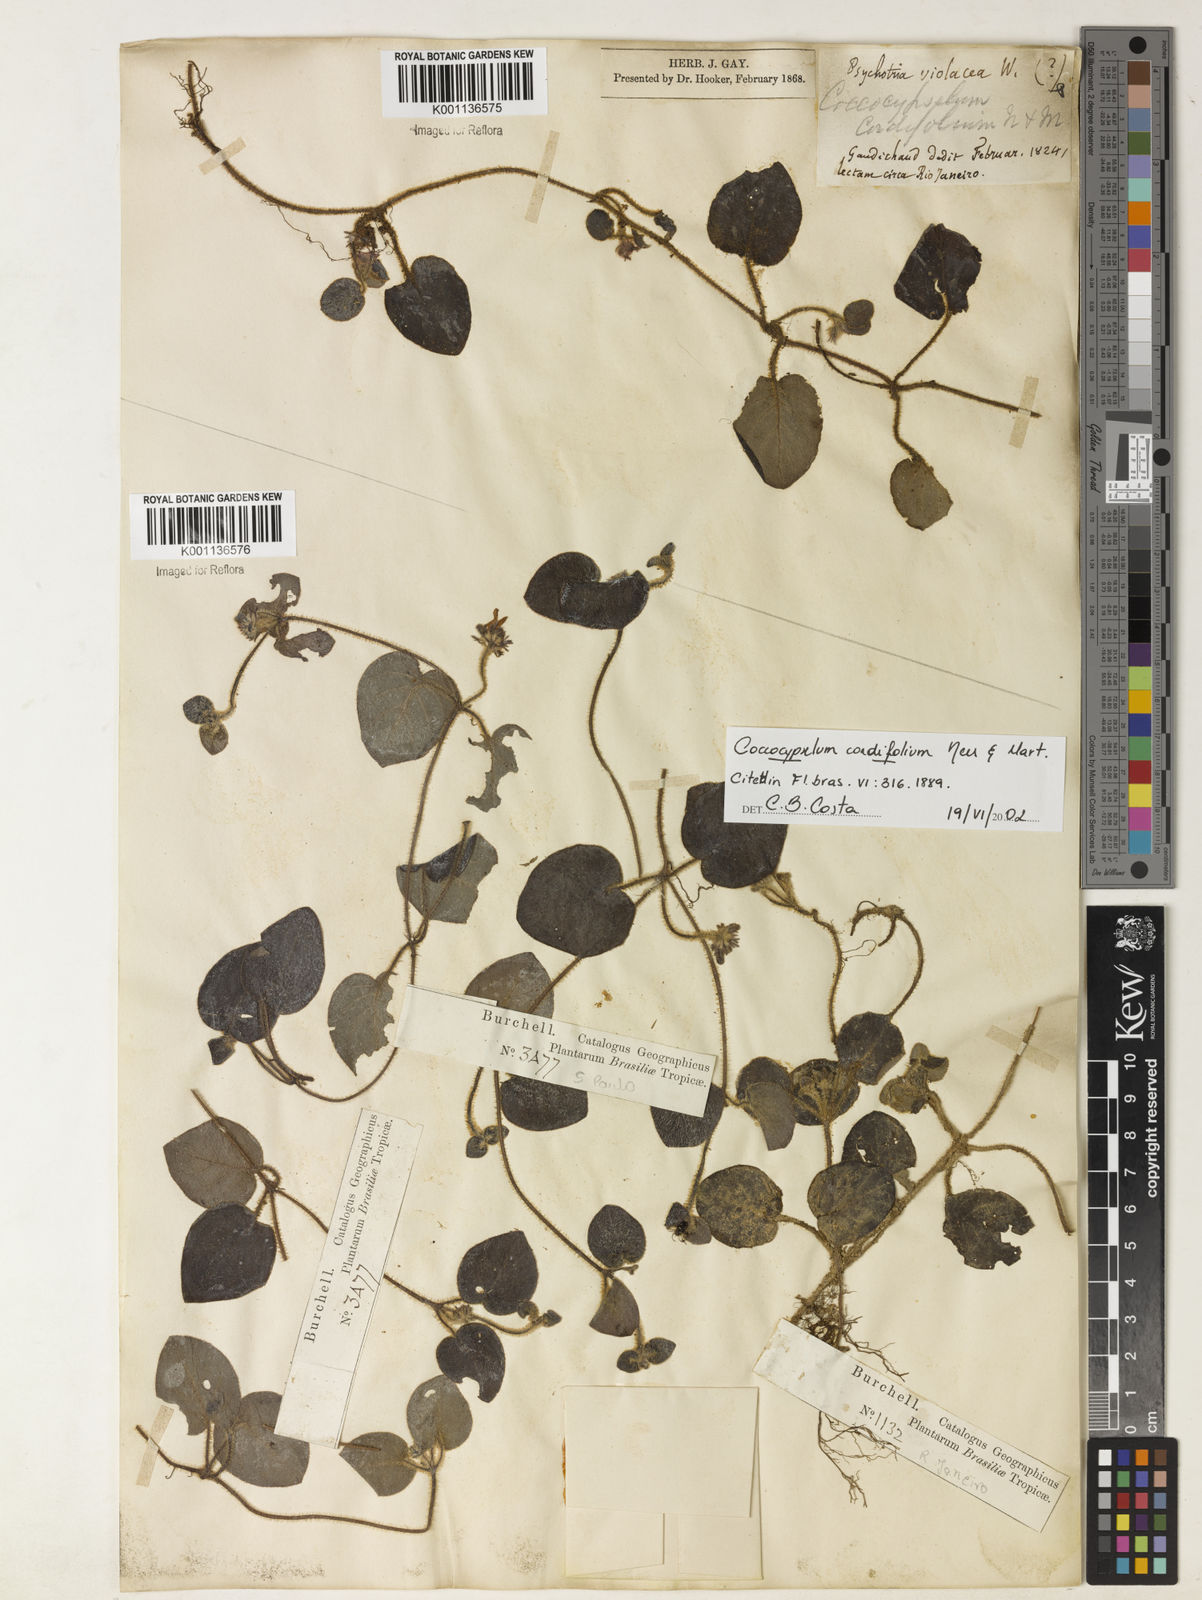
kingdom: Plantae
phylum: Tracheophyta
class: Magnoliopsida
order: Gentianales
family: Rubiaceae
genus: Coccocypselum
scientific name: Coccocypselum cordifolium
